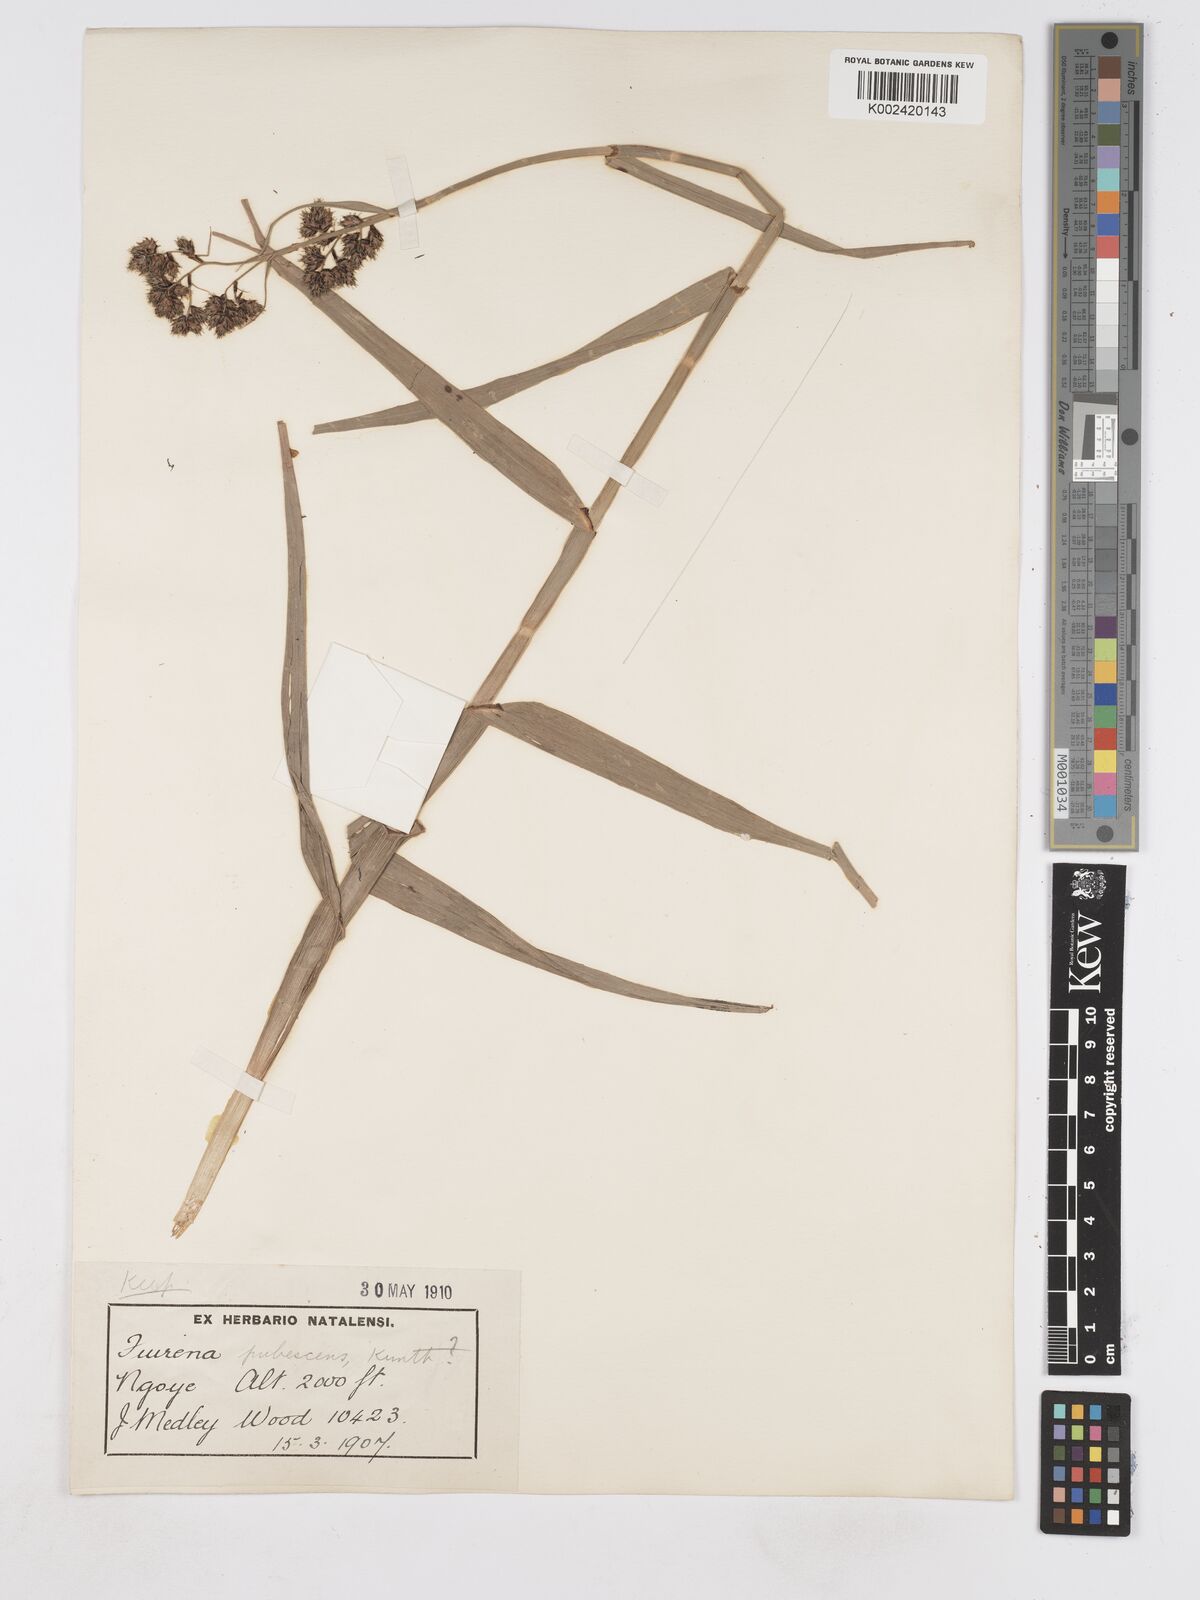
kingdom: Plantae
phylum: Tracheophyta
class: Liliopsida
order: Poales
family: Cyperaceae
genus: Fuirena
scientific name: Fuirena pubescens
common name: Hairy sedge
